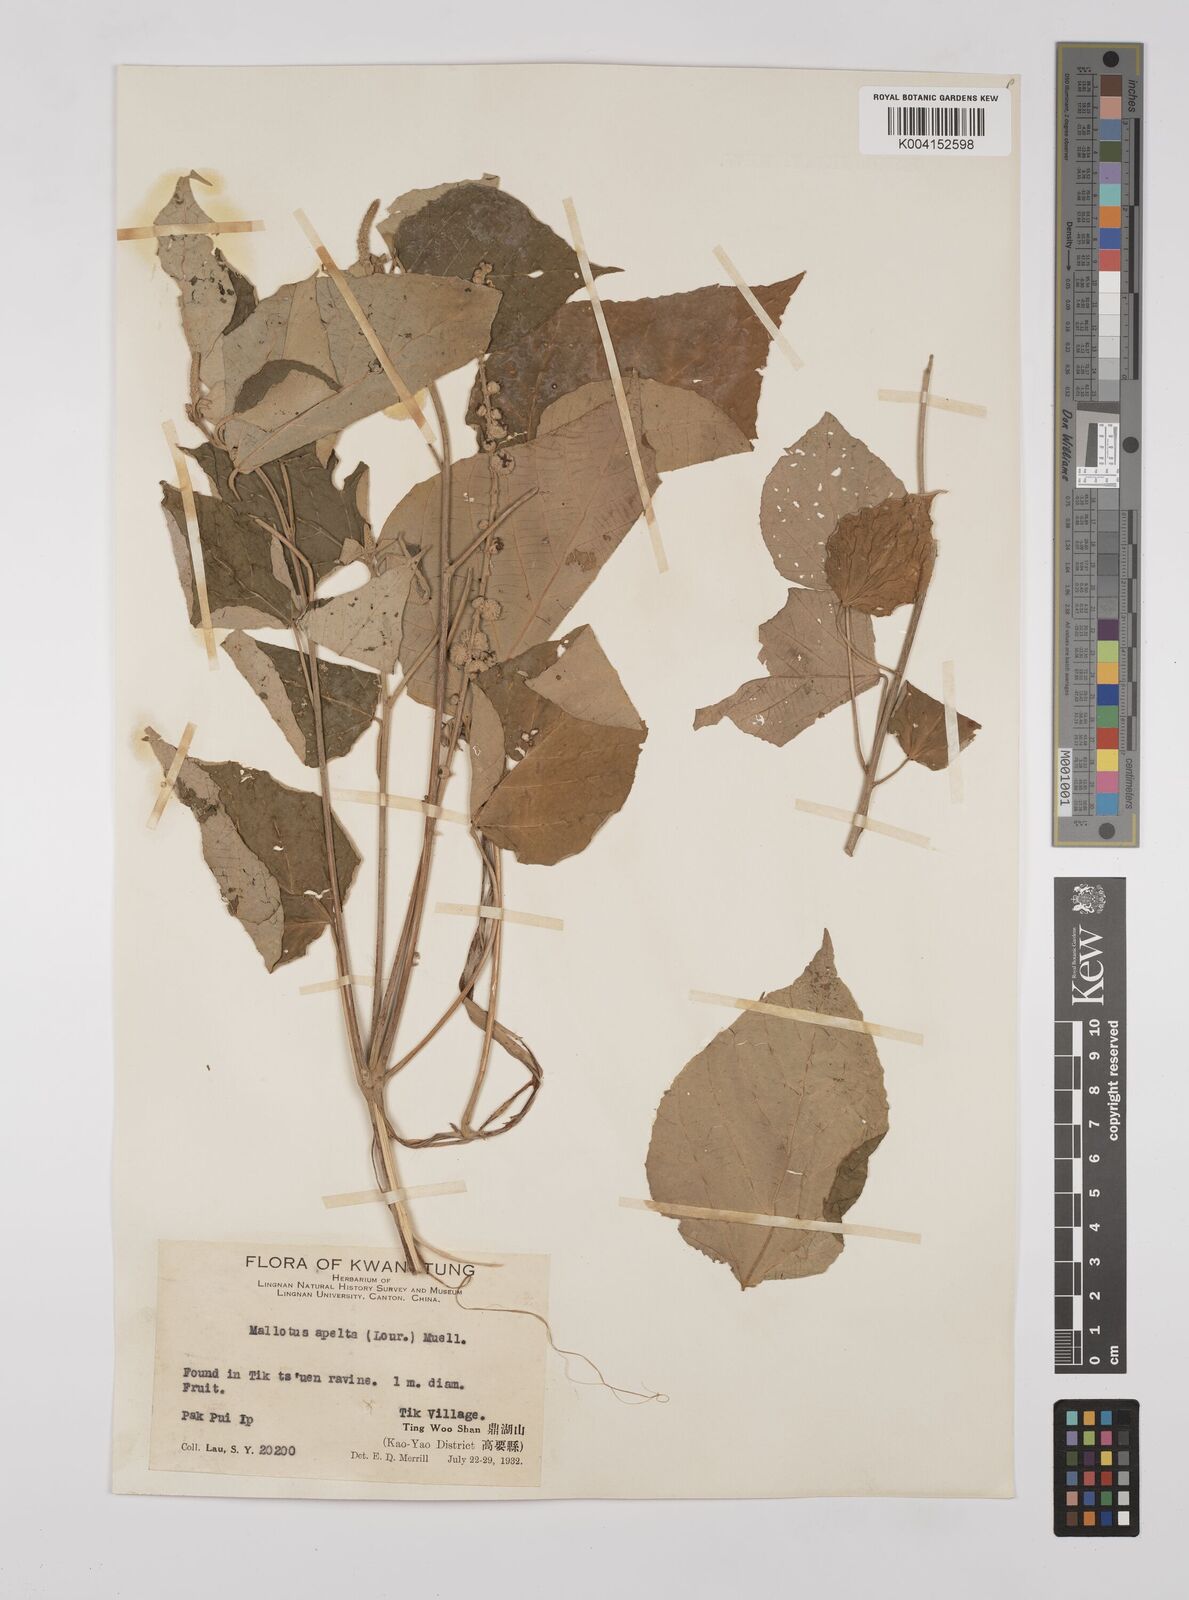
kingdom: Plantae
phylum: Tracheophyta
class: Magnoliopsida
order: Malpighiales
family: Euphorbiaceae
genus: Mallotus
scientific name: Mallotus apelta
